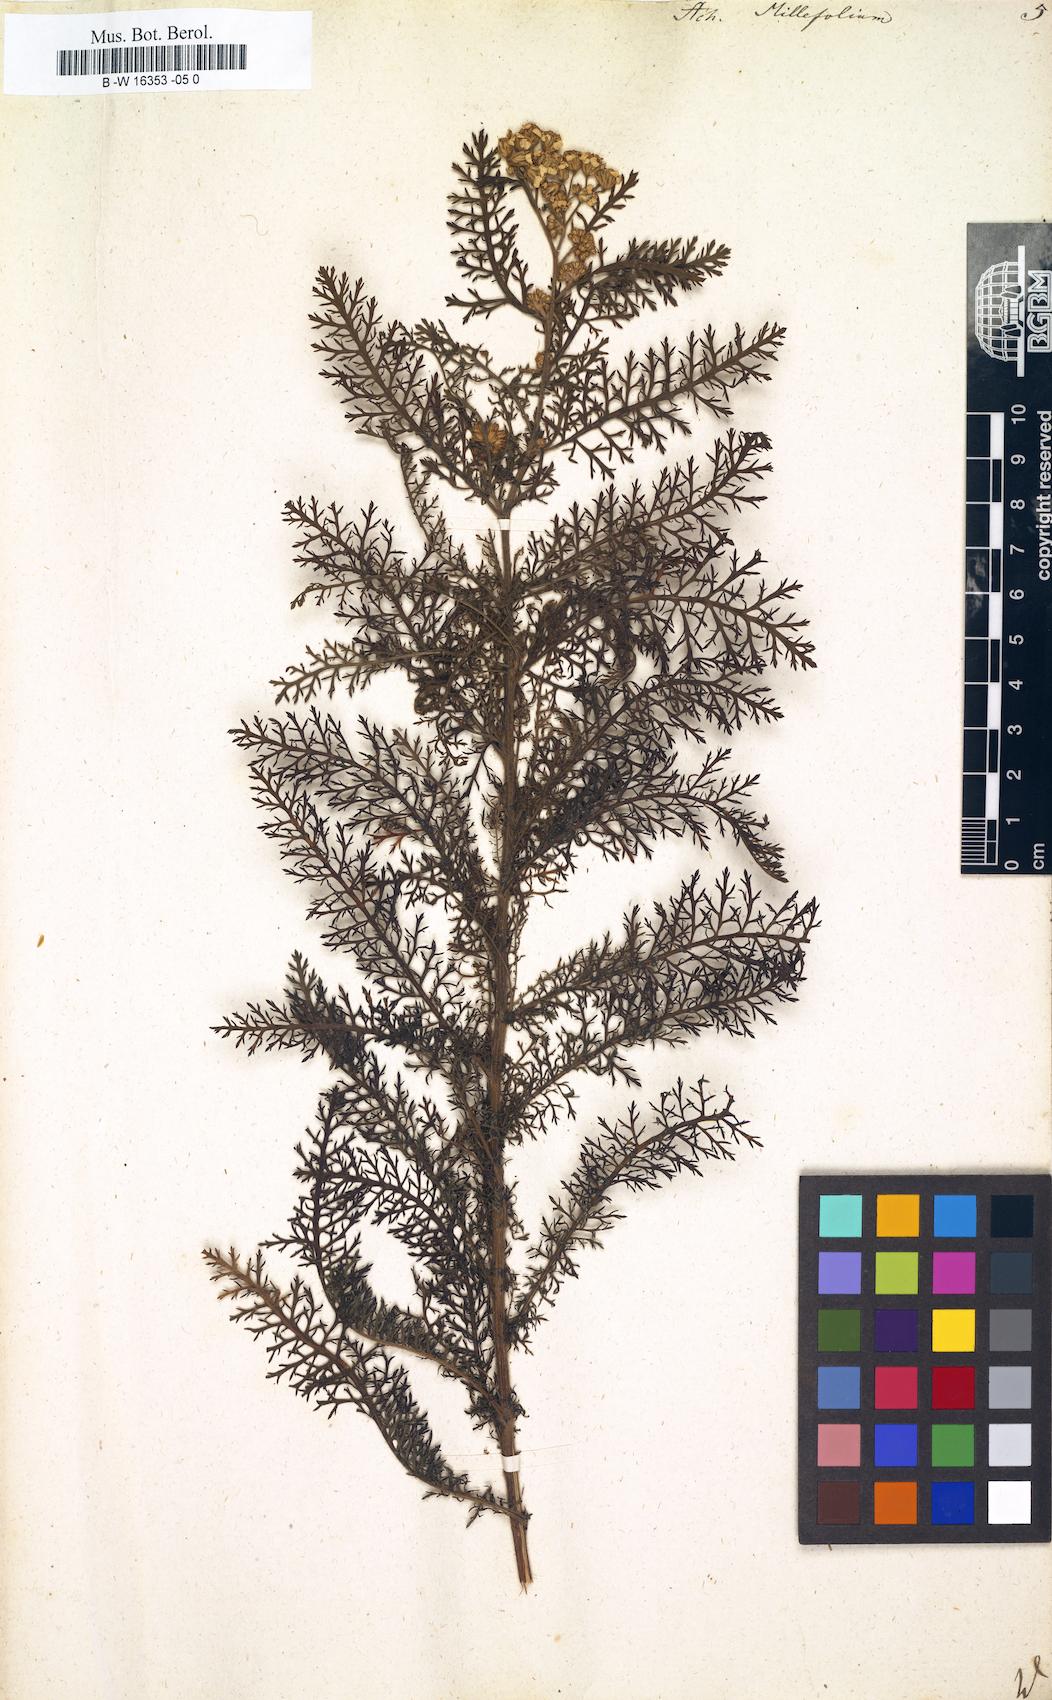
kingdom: Plantae
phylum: Tracheophyta
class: Magnoliopsida
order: Asterales
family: Asteraceae
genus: Achillea
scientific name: Achillea millefolium
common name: Yarrow
